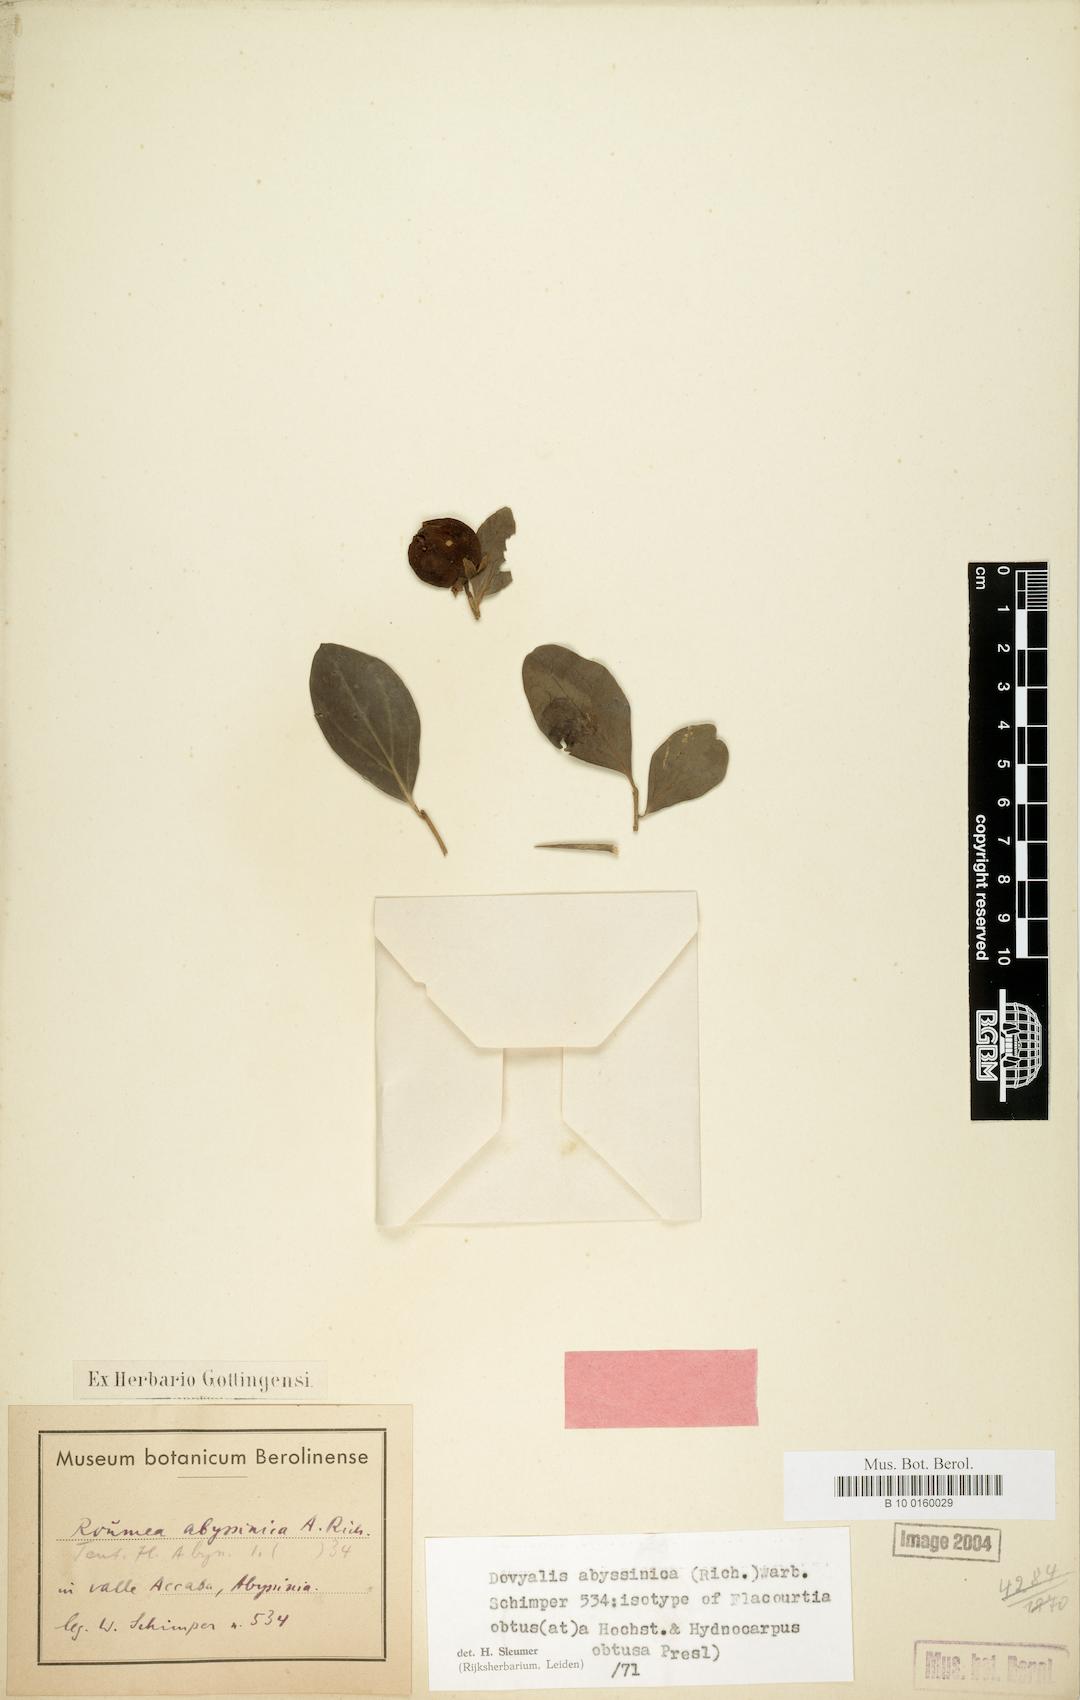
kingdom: Plantae
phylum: Tracheophyta
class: Magnoliopsida
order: Malpighiales
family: Salicaceae
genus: Dovyalis
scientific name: Dovyalis abyssinica
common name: Abyssinian-gooseberry
